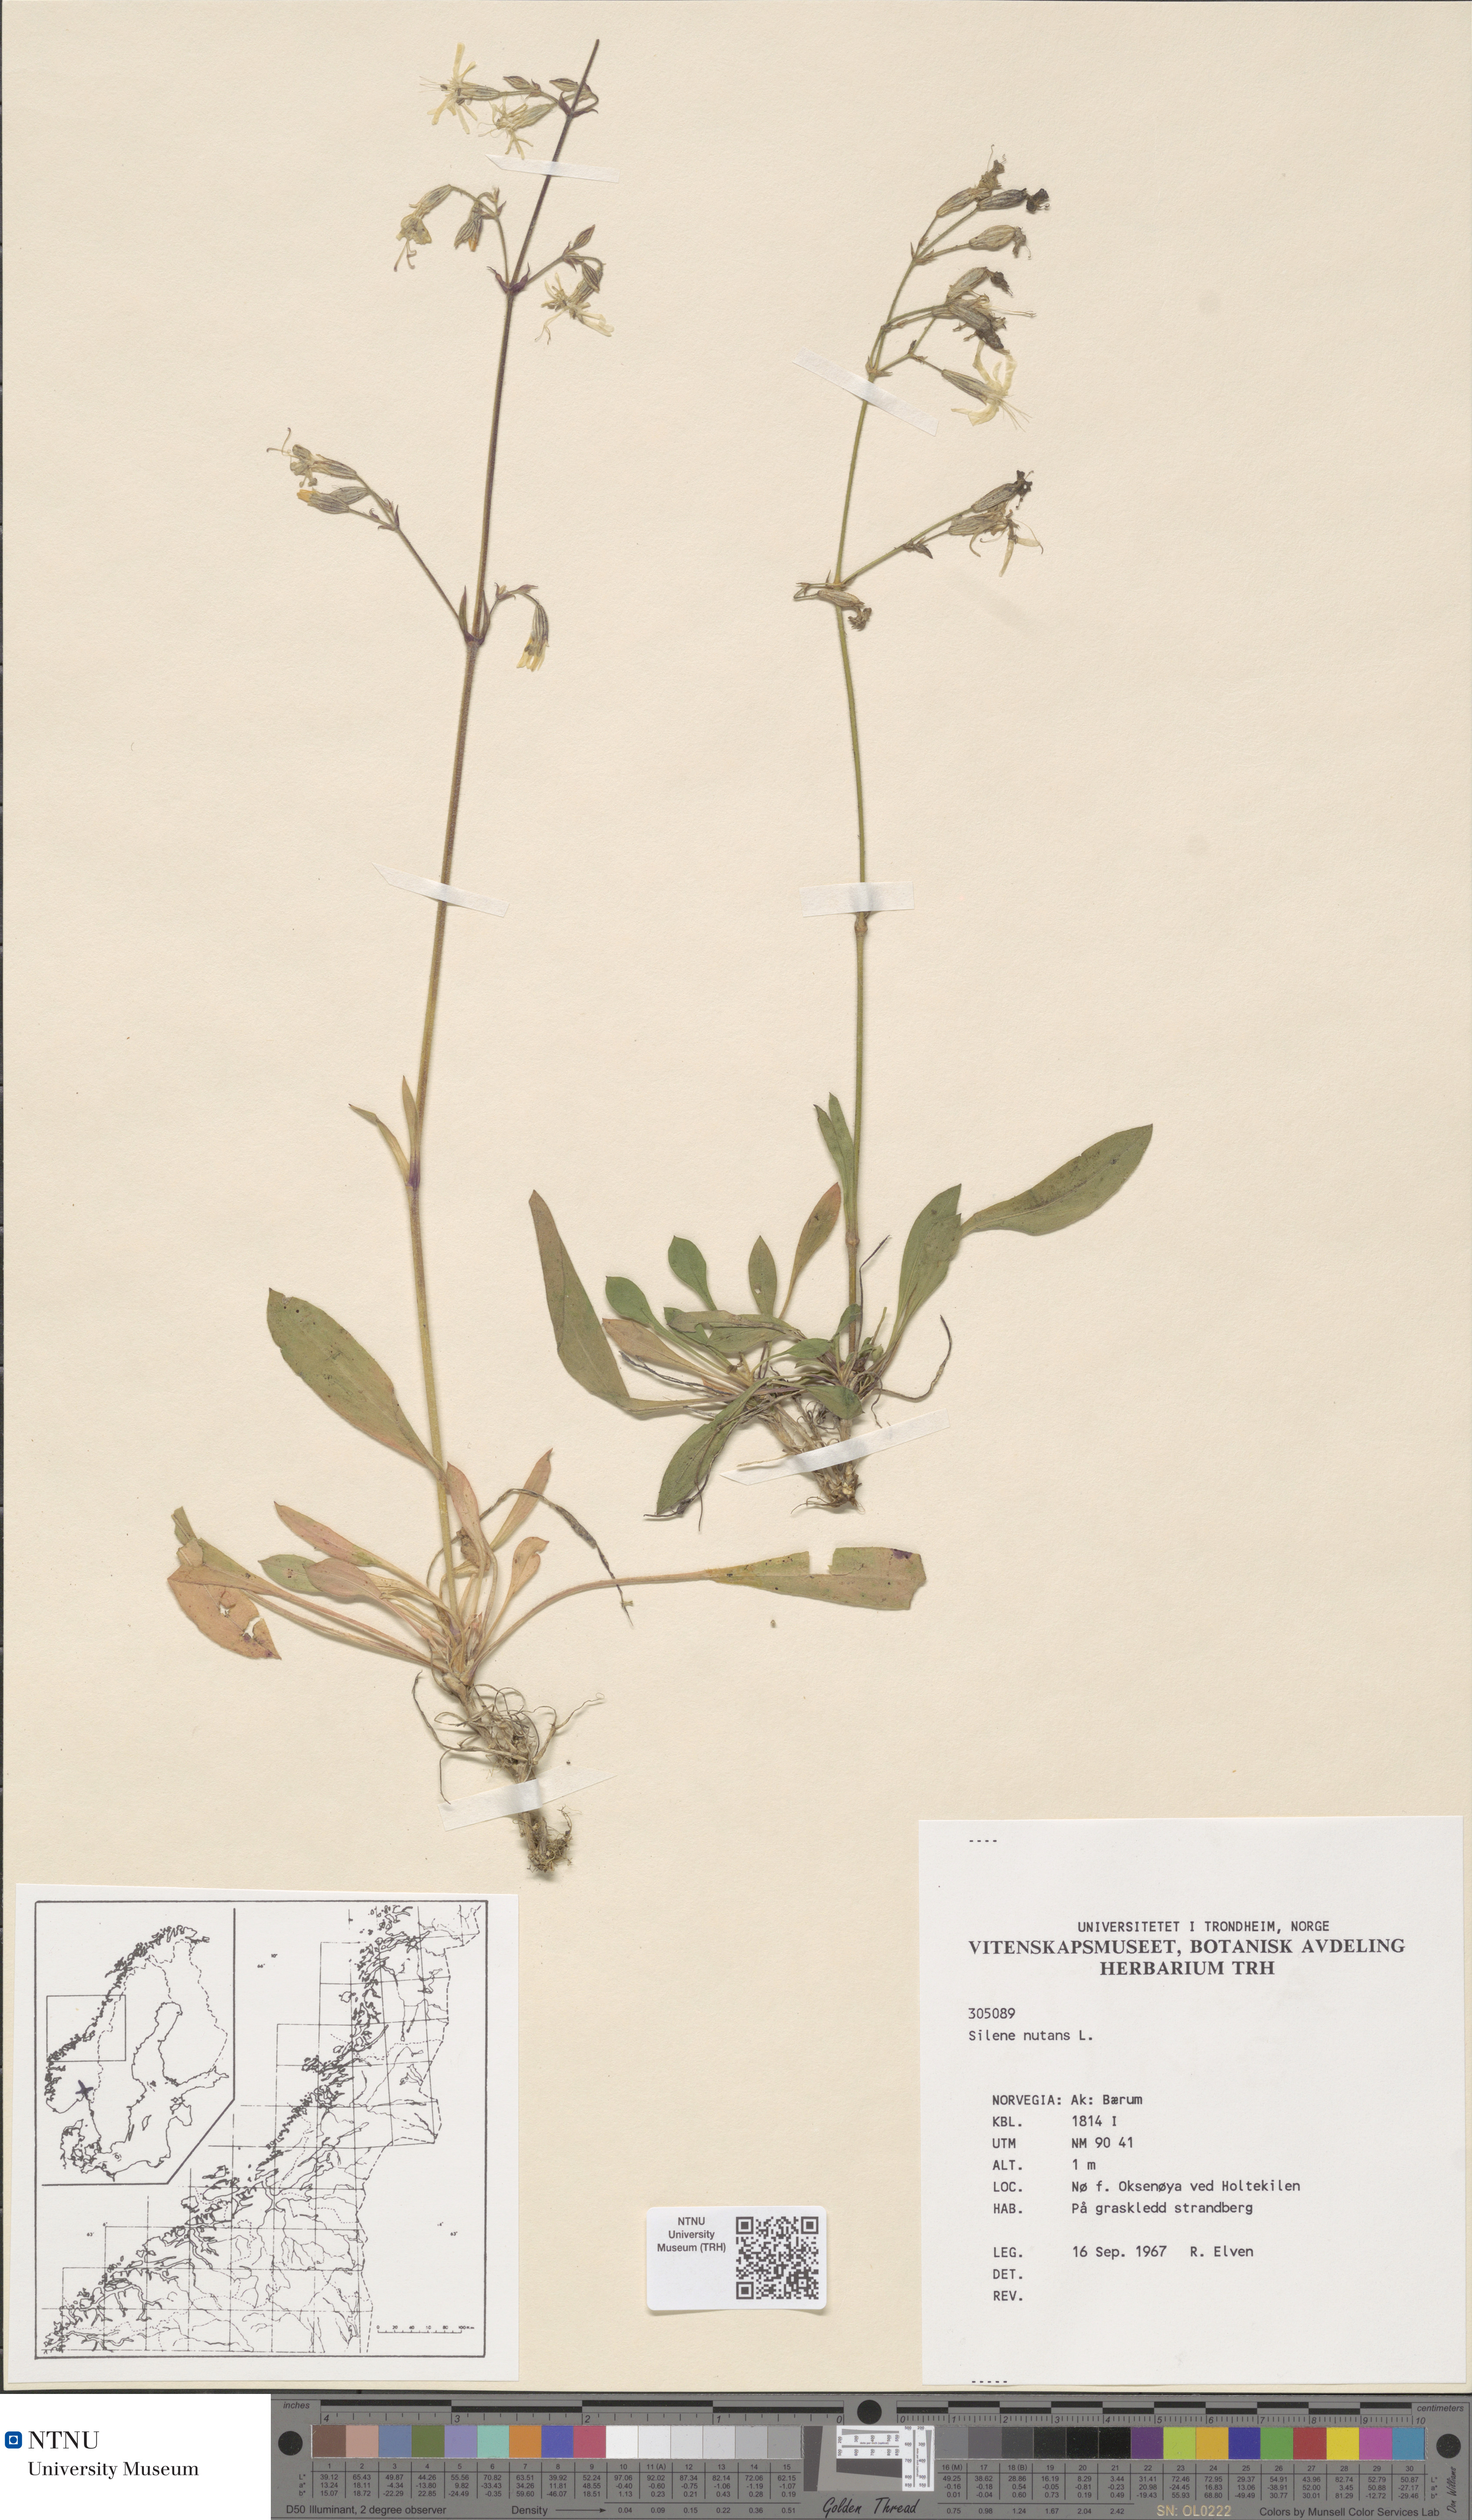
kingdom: Plantae
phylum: Tracheophyta
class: Magnoliopsida
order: Caryophyllales
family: Caryophyllaceae
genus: Silene
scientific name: Silene nutans
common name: Nottingham catchfly
